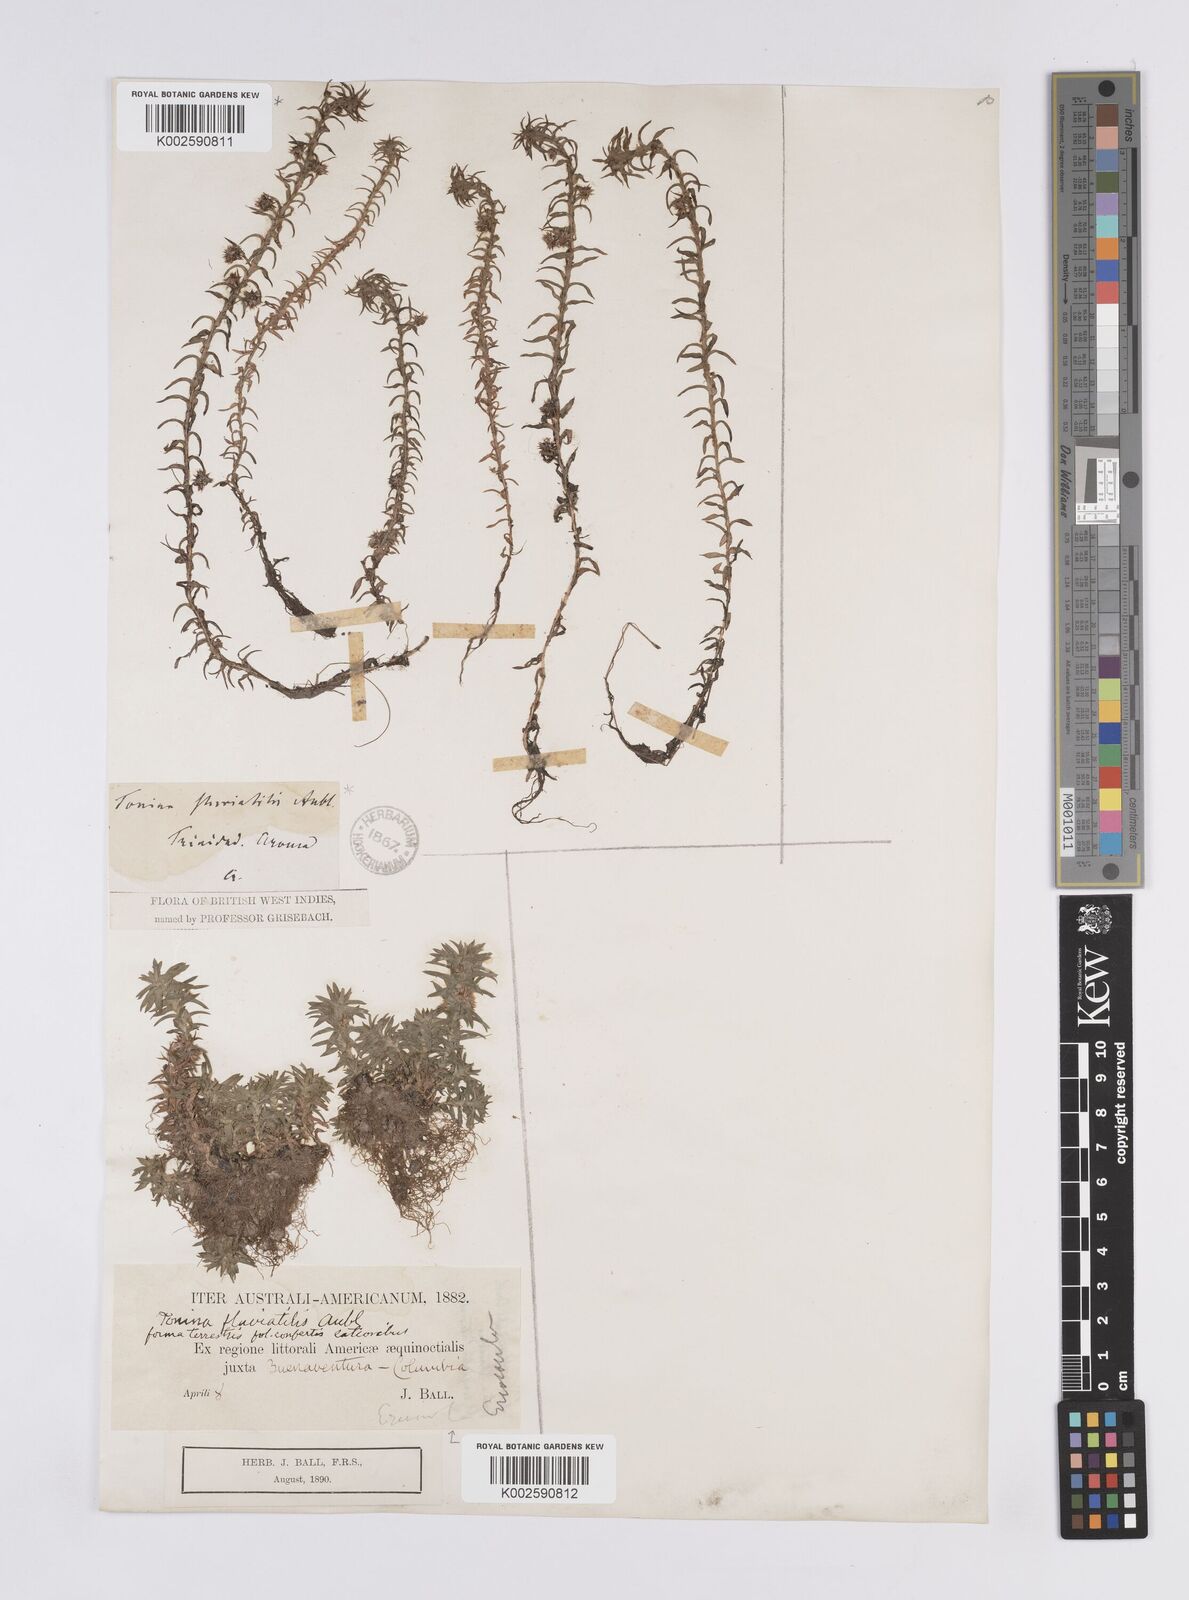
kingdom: Plantae
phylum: Tracheophyta
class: Liliopsida
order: Poales
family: Eriocaulaceae
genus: Paepalanthus
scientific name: Paepalanthus fluviatilis
